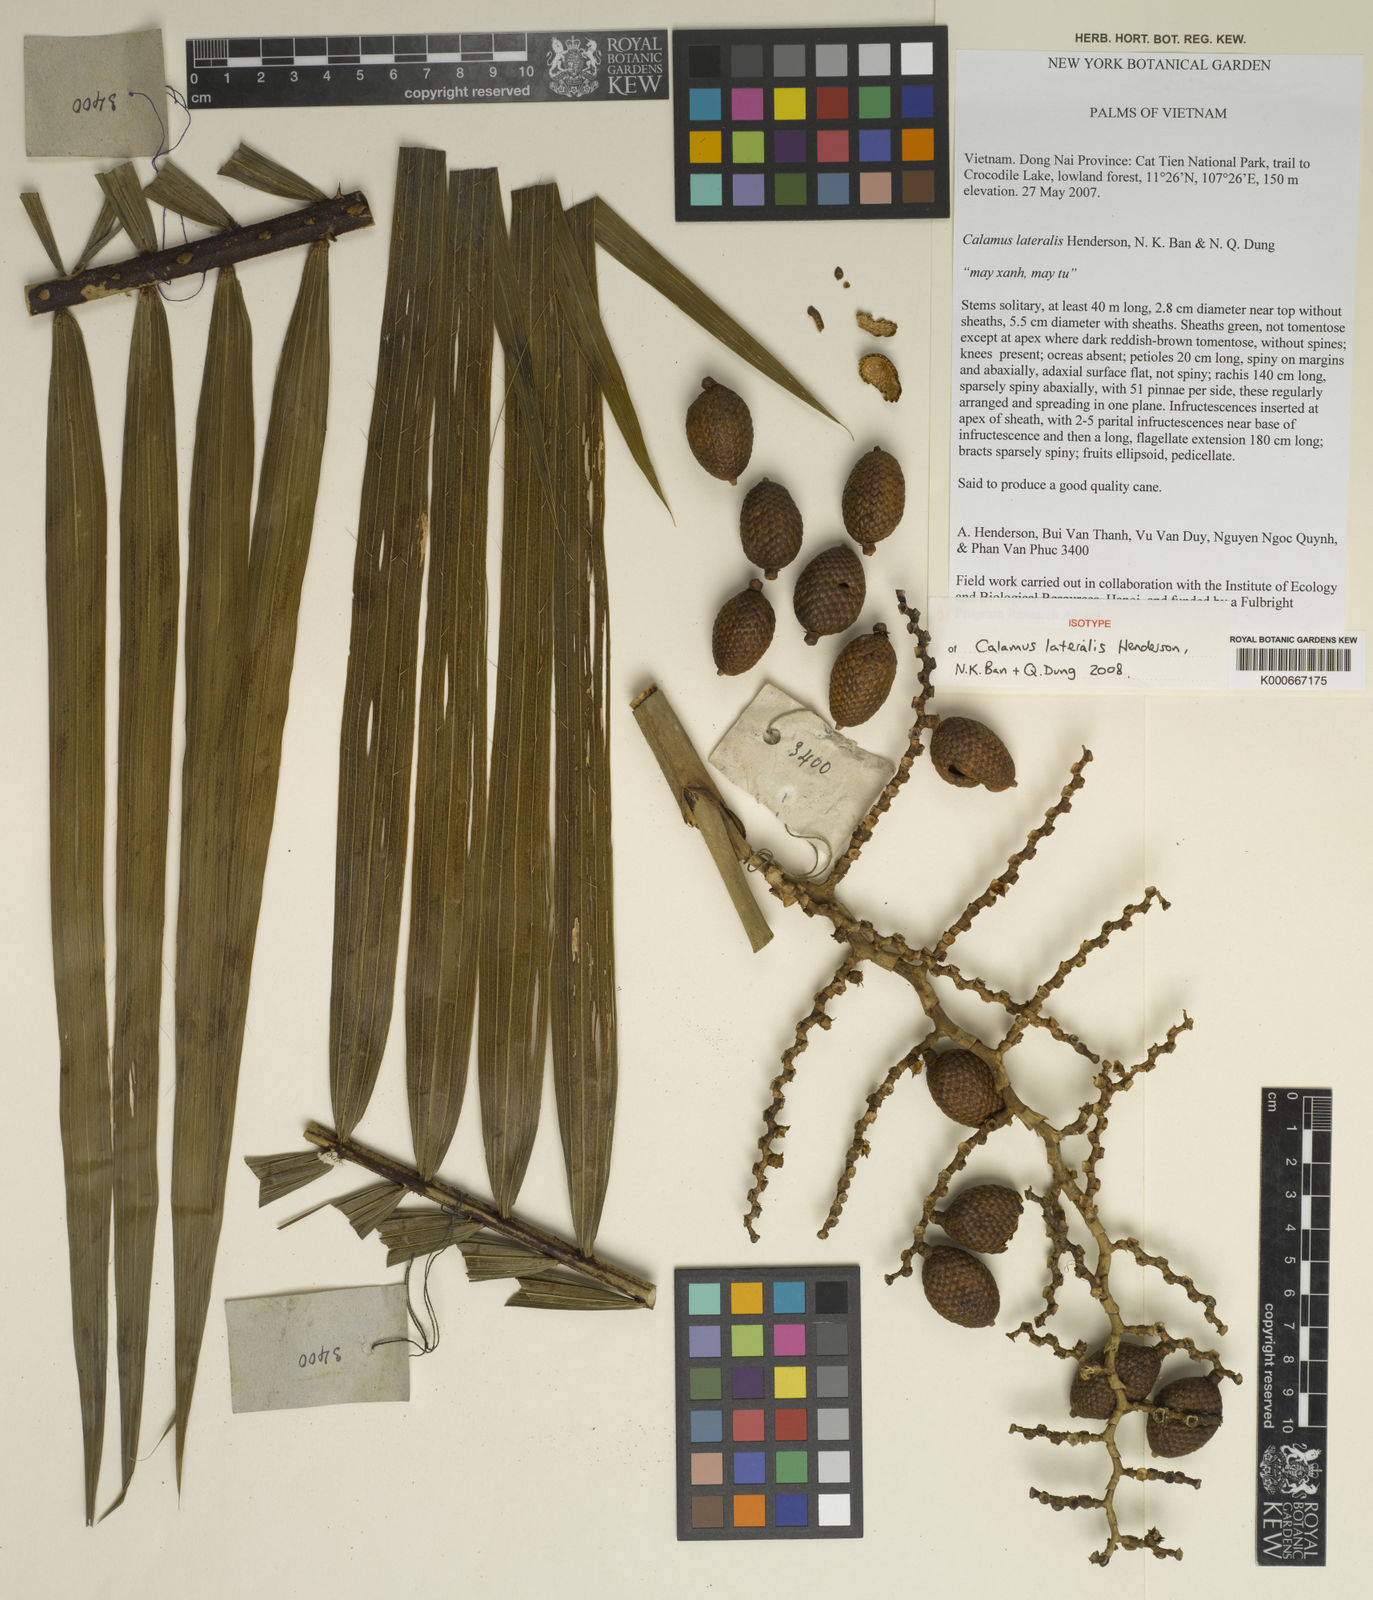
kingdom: Plantae
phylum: Tracheophyta
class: Liliopsida
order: Arecales
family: Arecaceae
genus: Calamus
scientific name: Calamus lateralis
